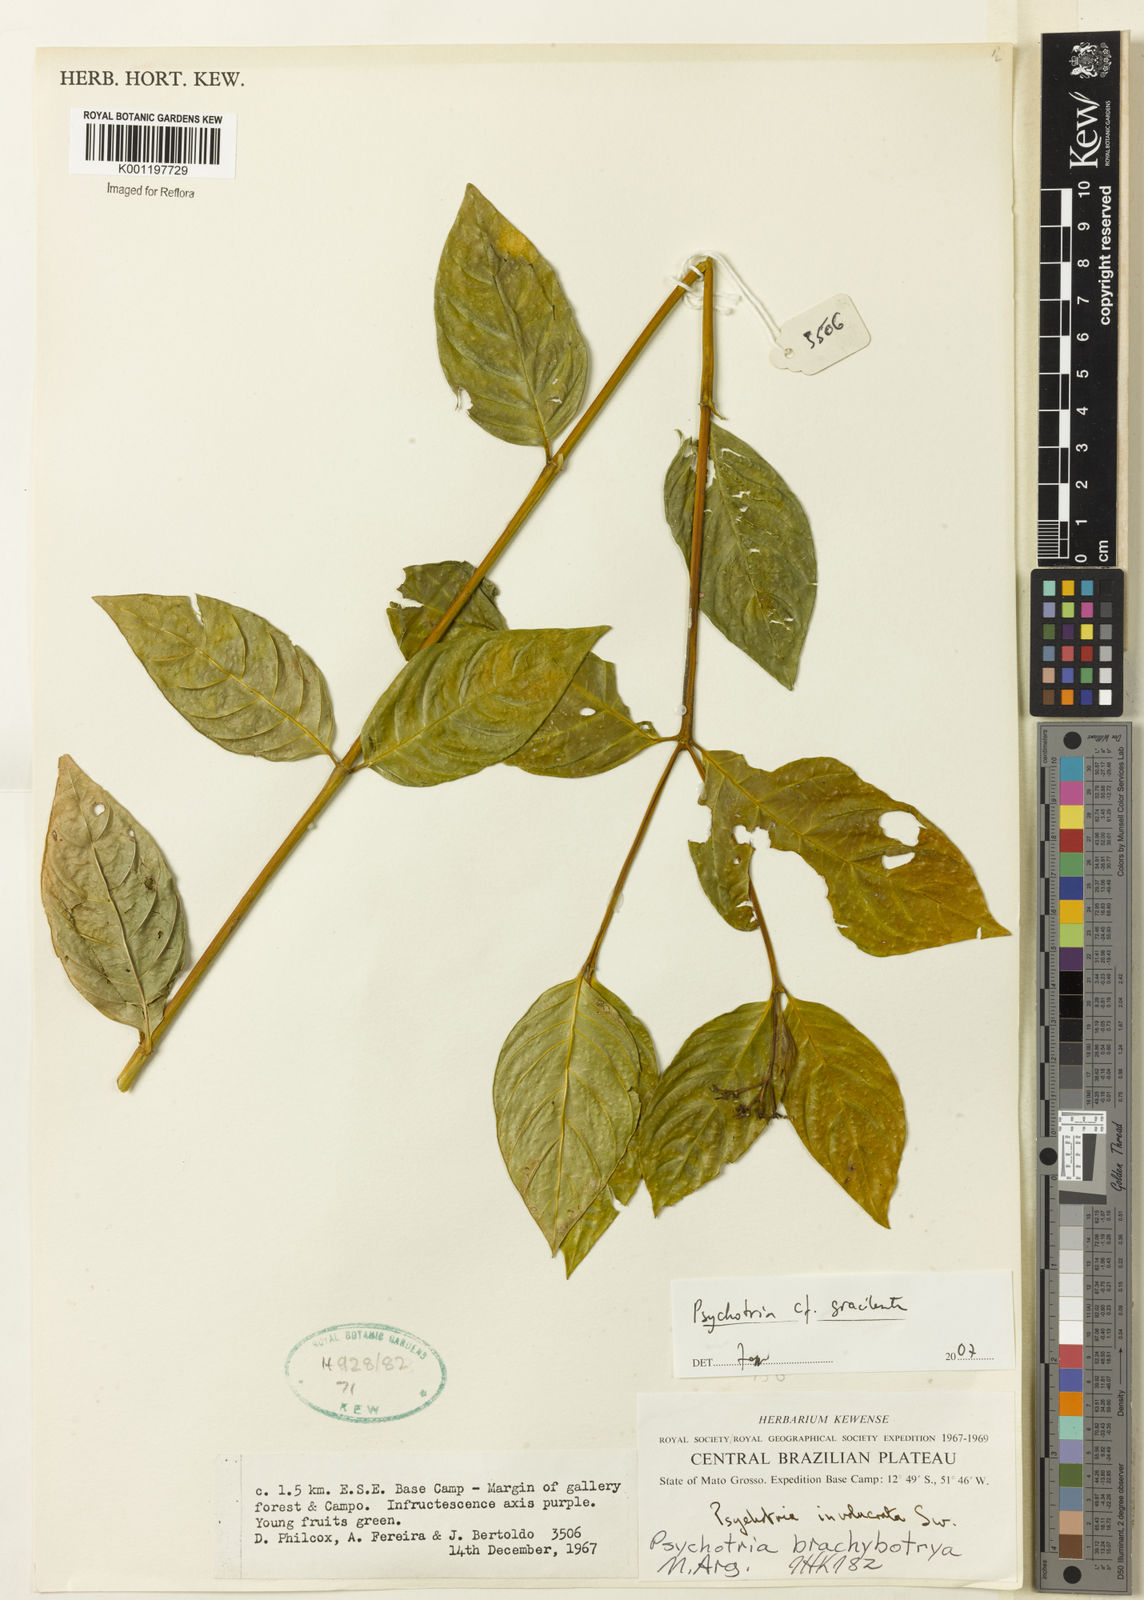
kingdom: Plantae
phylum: Tracheophyta
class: Magnoliopsida
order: Gentianales
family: Rubiaceae
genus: Psychotria
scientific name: Psychotria
